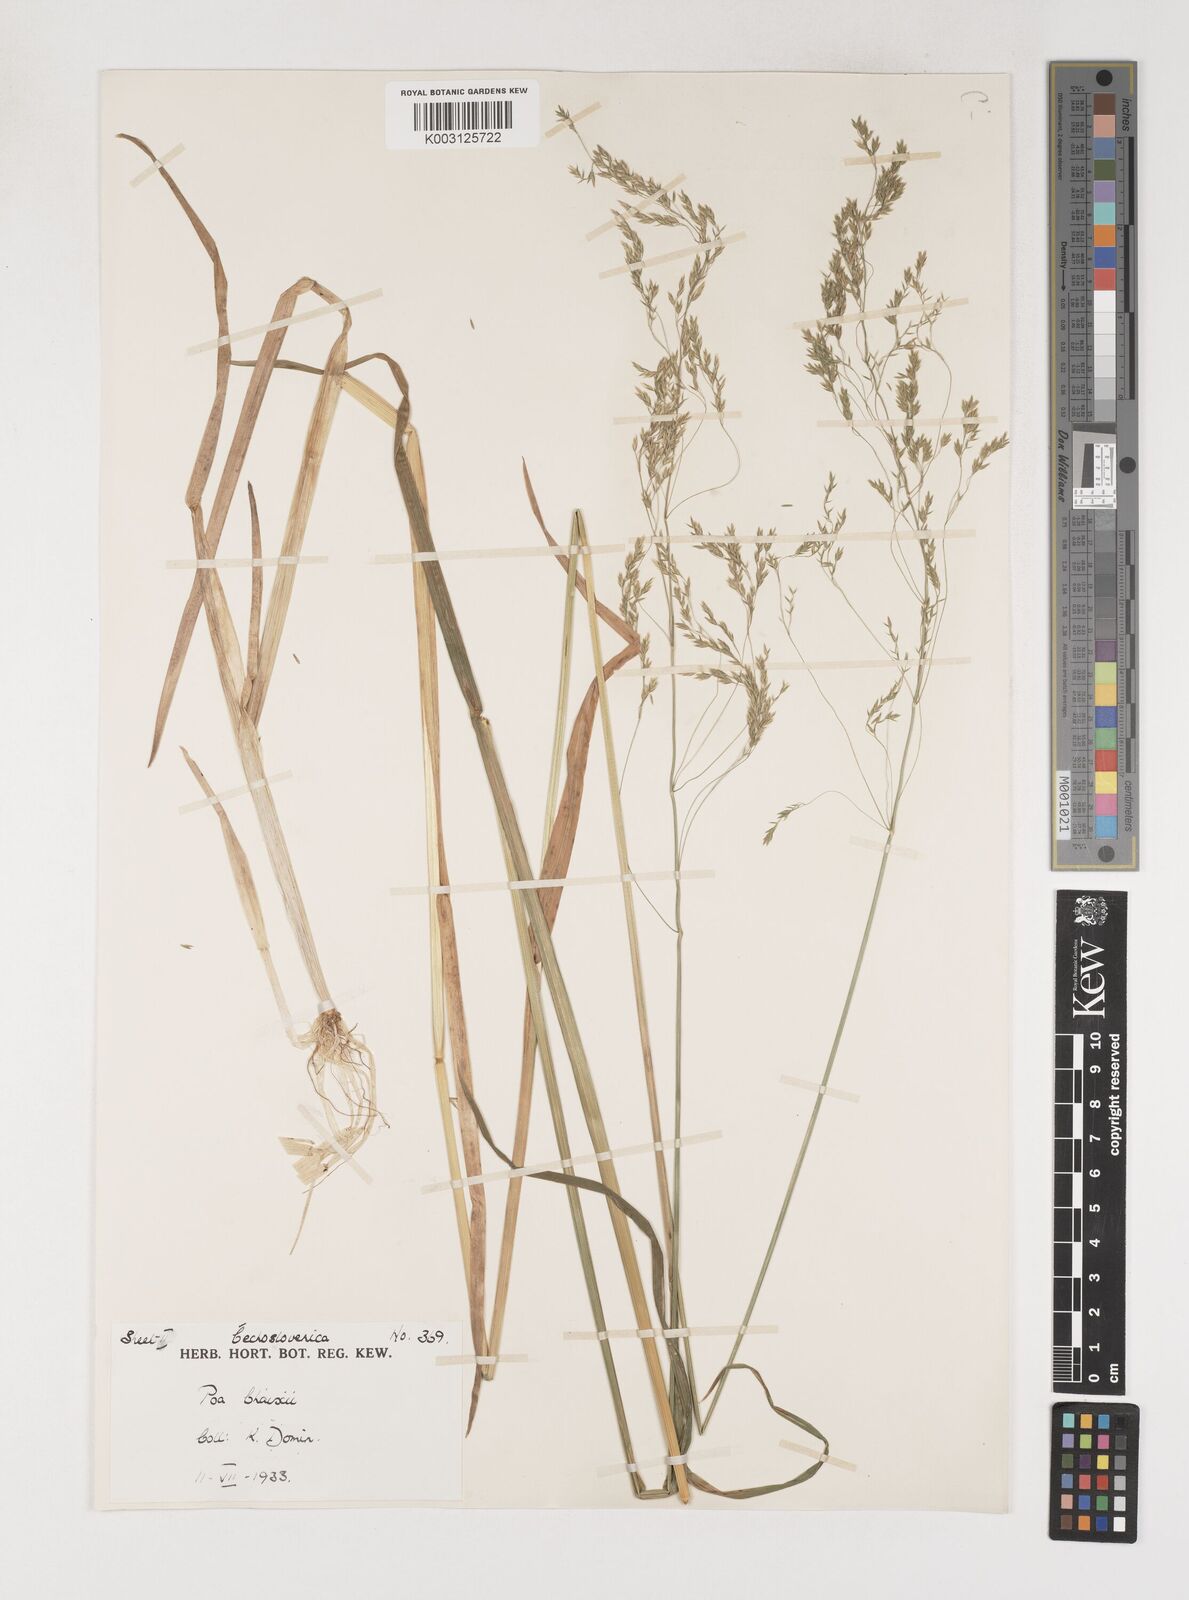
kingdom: Plantae
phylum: Tracheophyta
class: Liliopsida
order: Poales
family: Poaceae
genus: Poa
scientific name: Poa chaixii
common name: Broad-leaved meadow-grass
